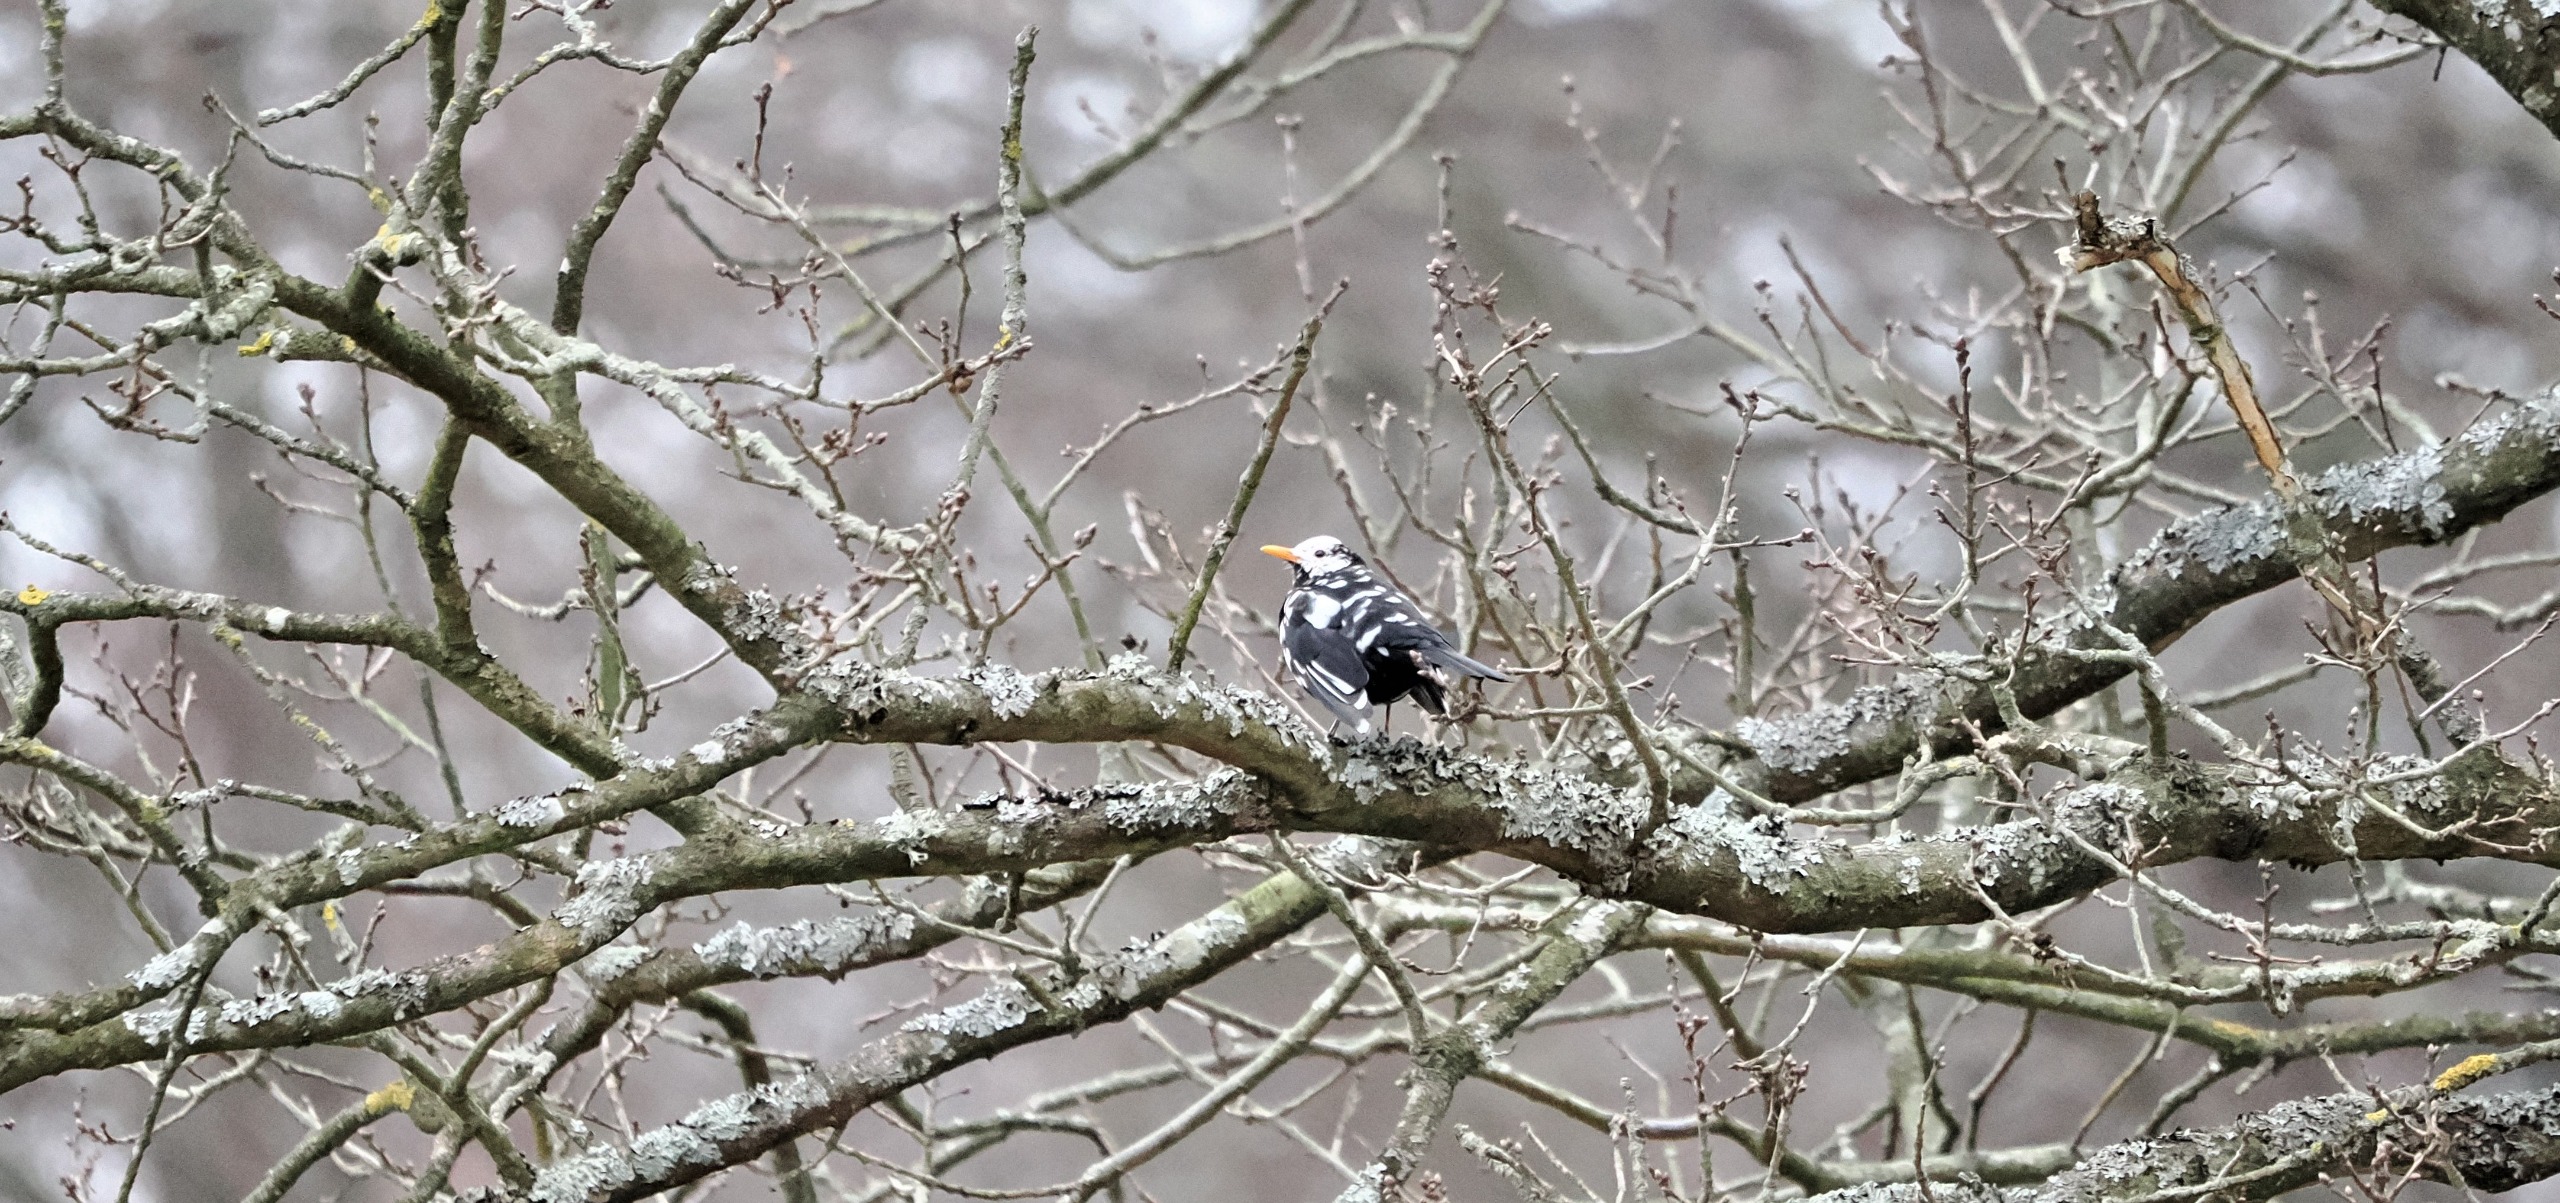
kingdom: Animalia
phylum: Chordata
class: Aves
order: Passeriformes
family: Turdidae
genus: Turdus
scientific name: Turdus merula
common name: Solsort
